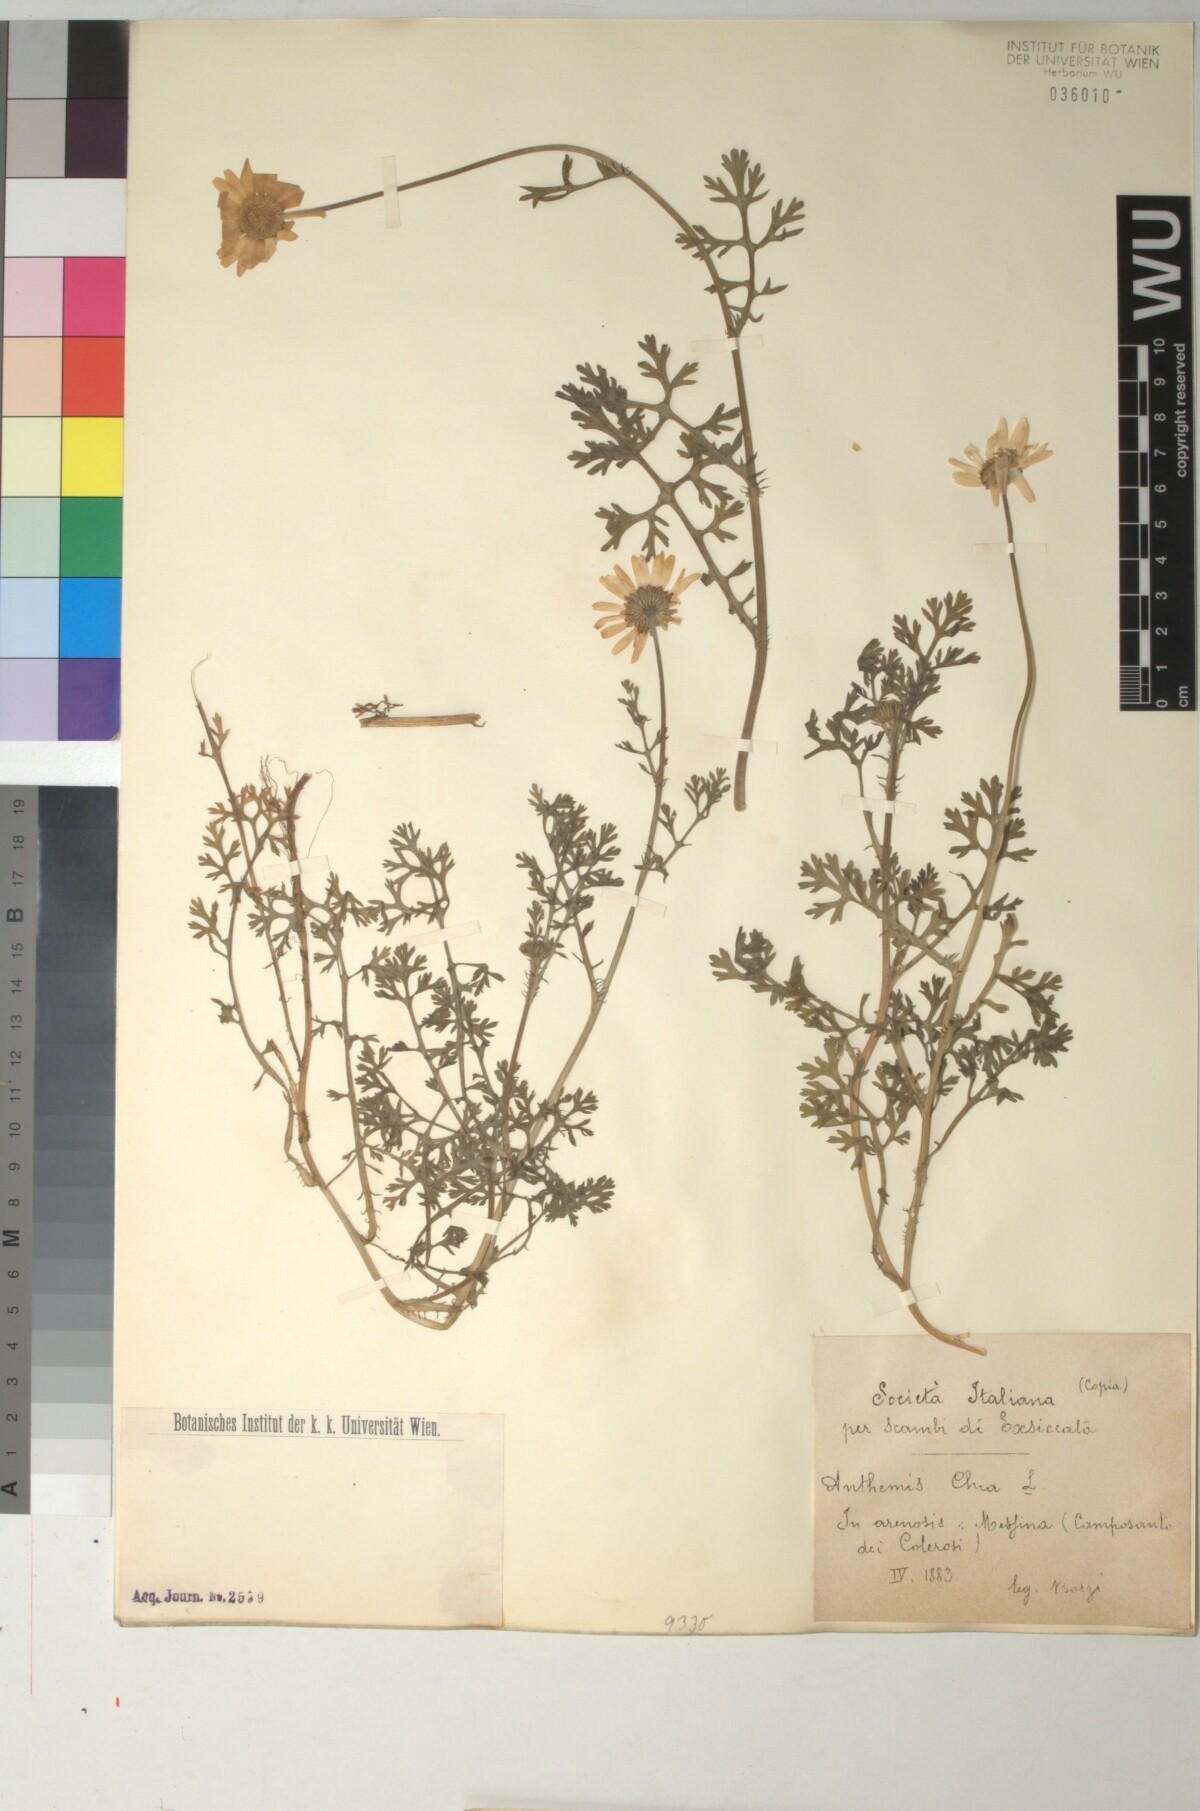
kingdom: Plantae
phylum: Tracheophyta
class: Magnoliopsida
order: Asterales
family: Asteraceae
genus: Anthemis
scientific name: Anthemis chia
